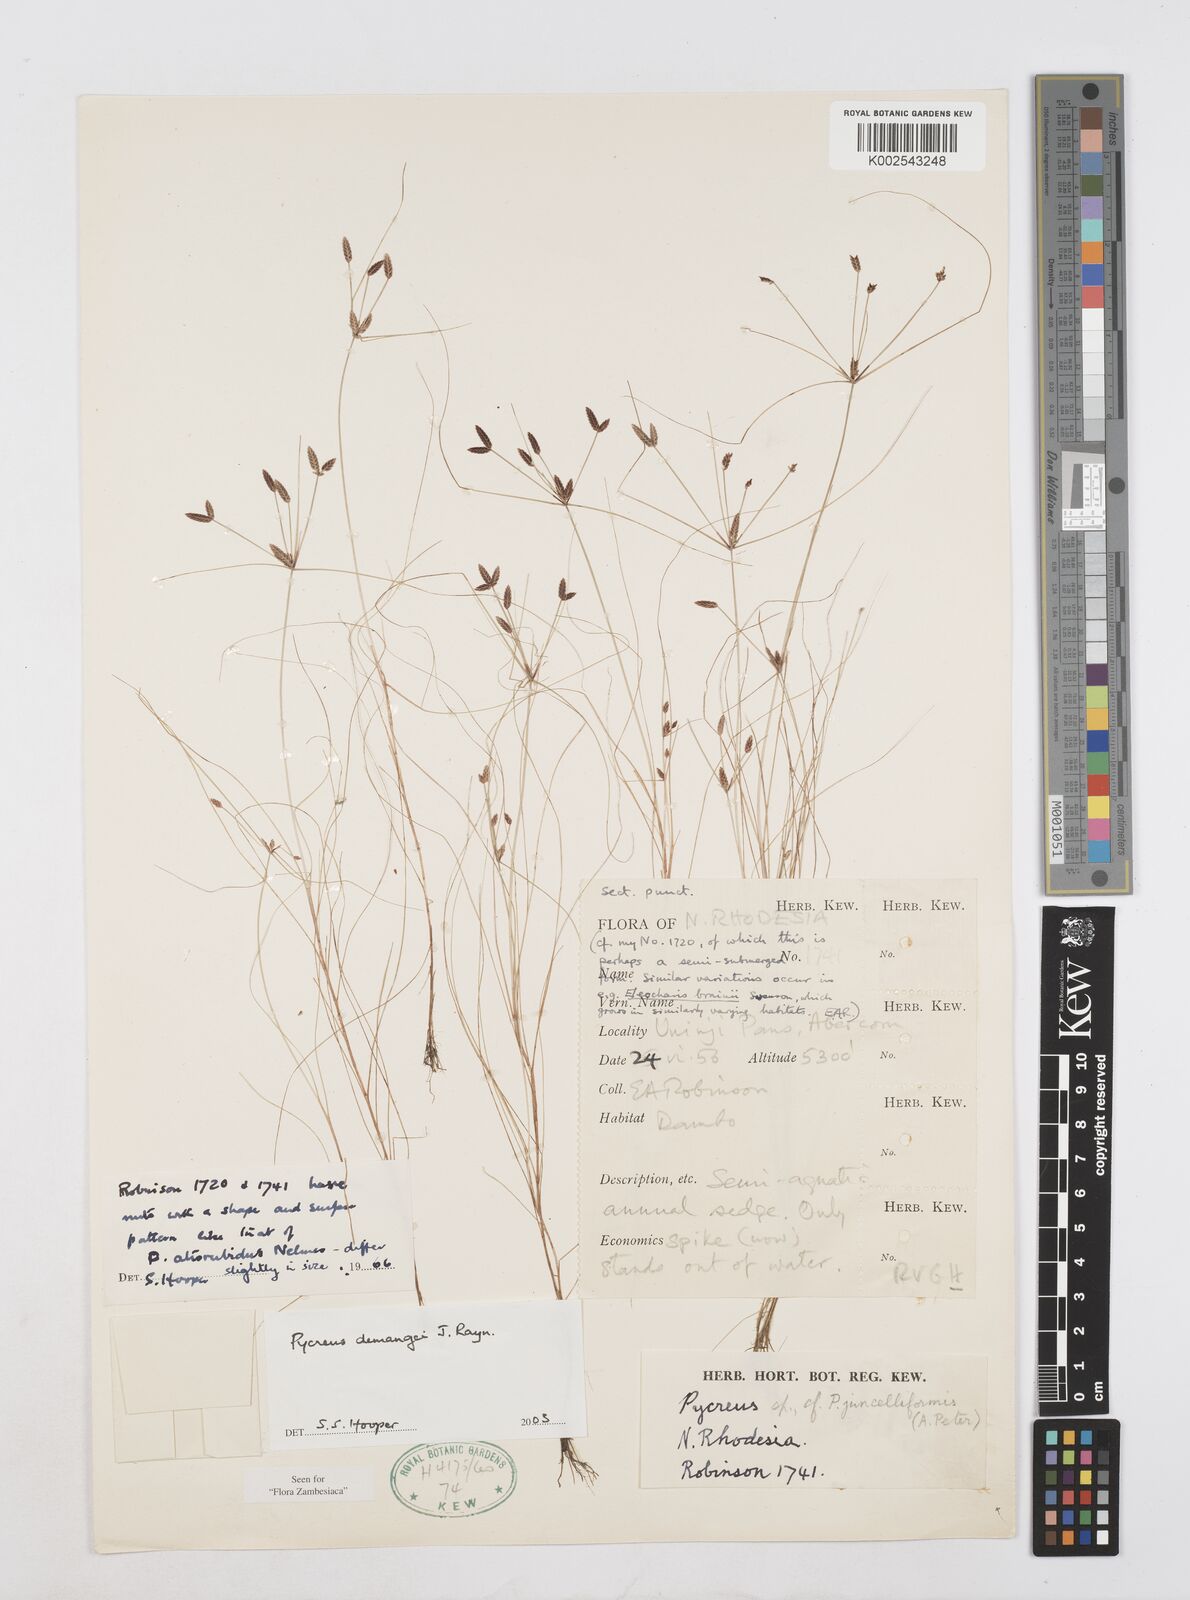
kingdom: Plantae
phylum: Tracheophyta
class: Liliopsida
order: Poales
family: Cyperaceae
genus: Cyperus
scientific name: Cyperus demangei
